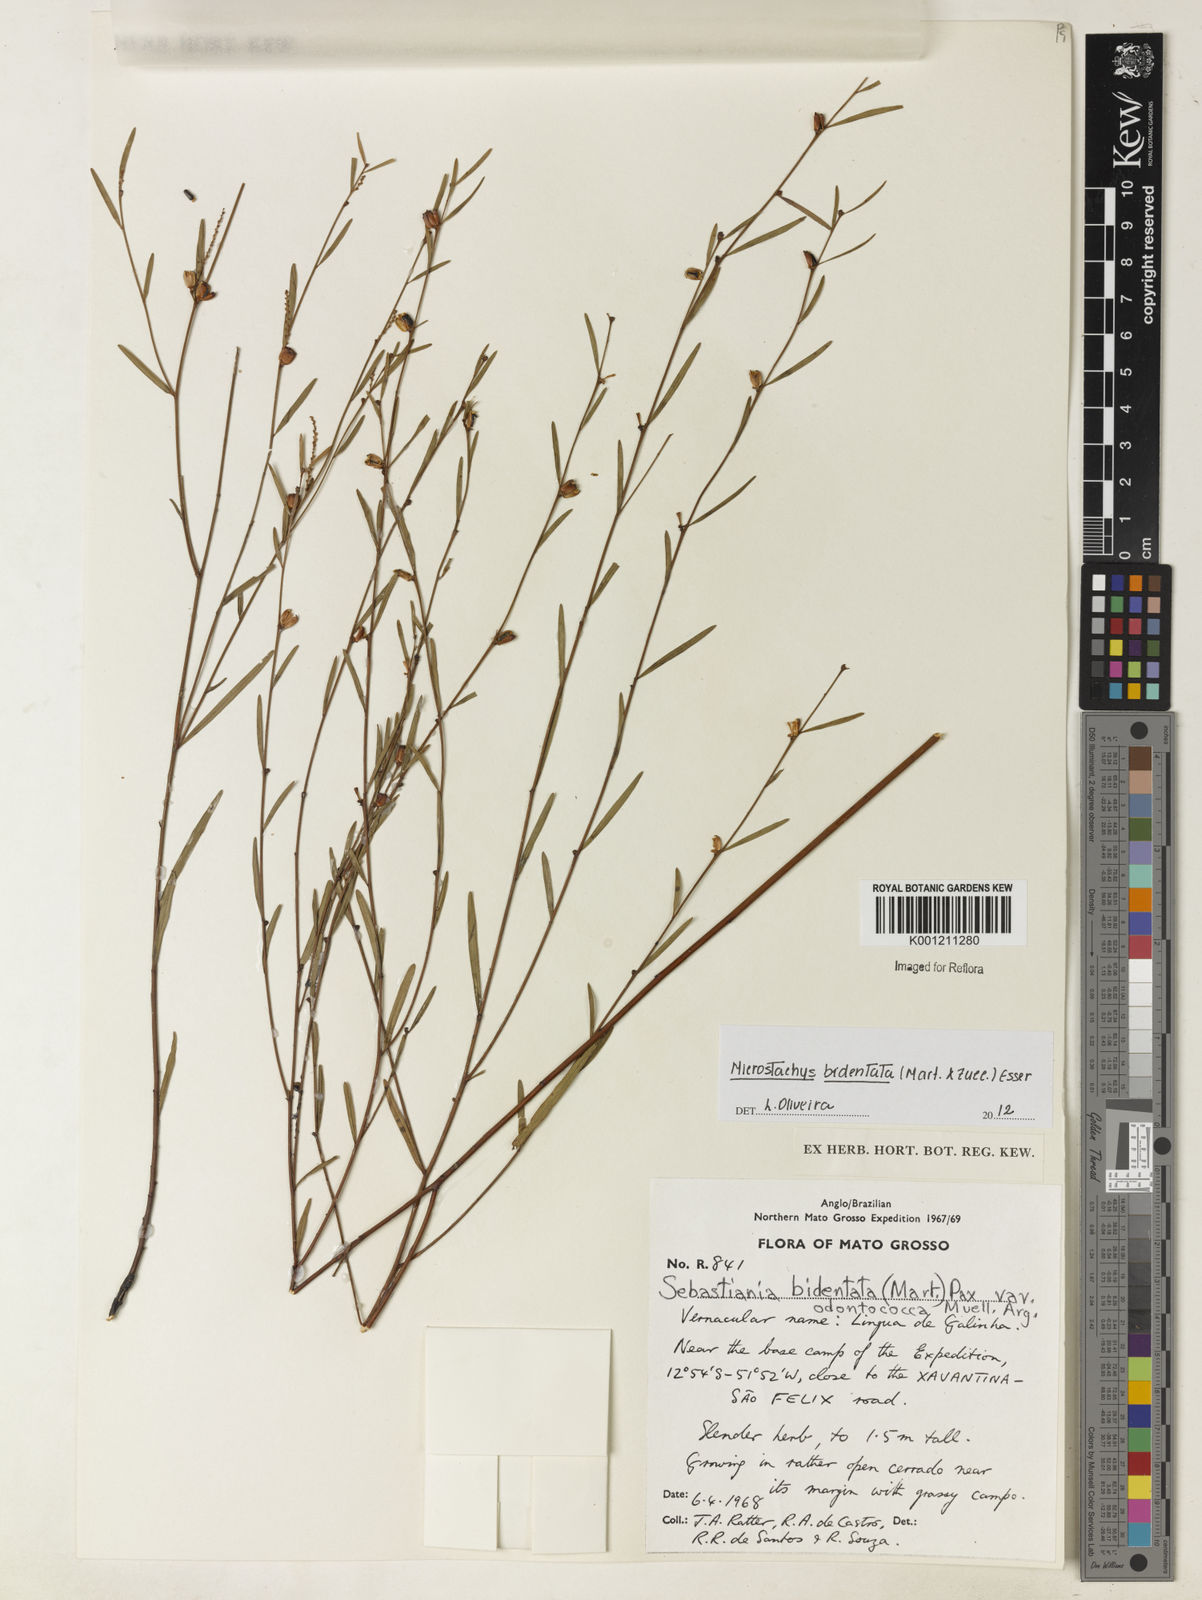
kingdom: Plantae
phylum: Tracheophyta
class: Magnoliopsida
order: Malpighiales
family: Euphorbiaceae
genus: Microstachys
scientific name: Microstachys bidentata
